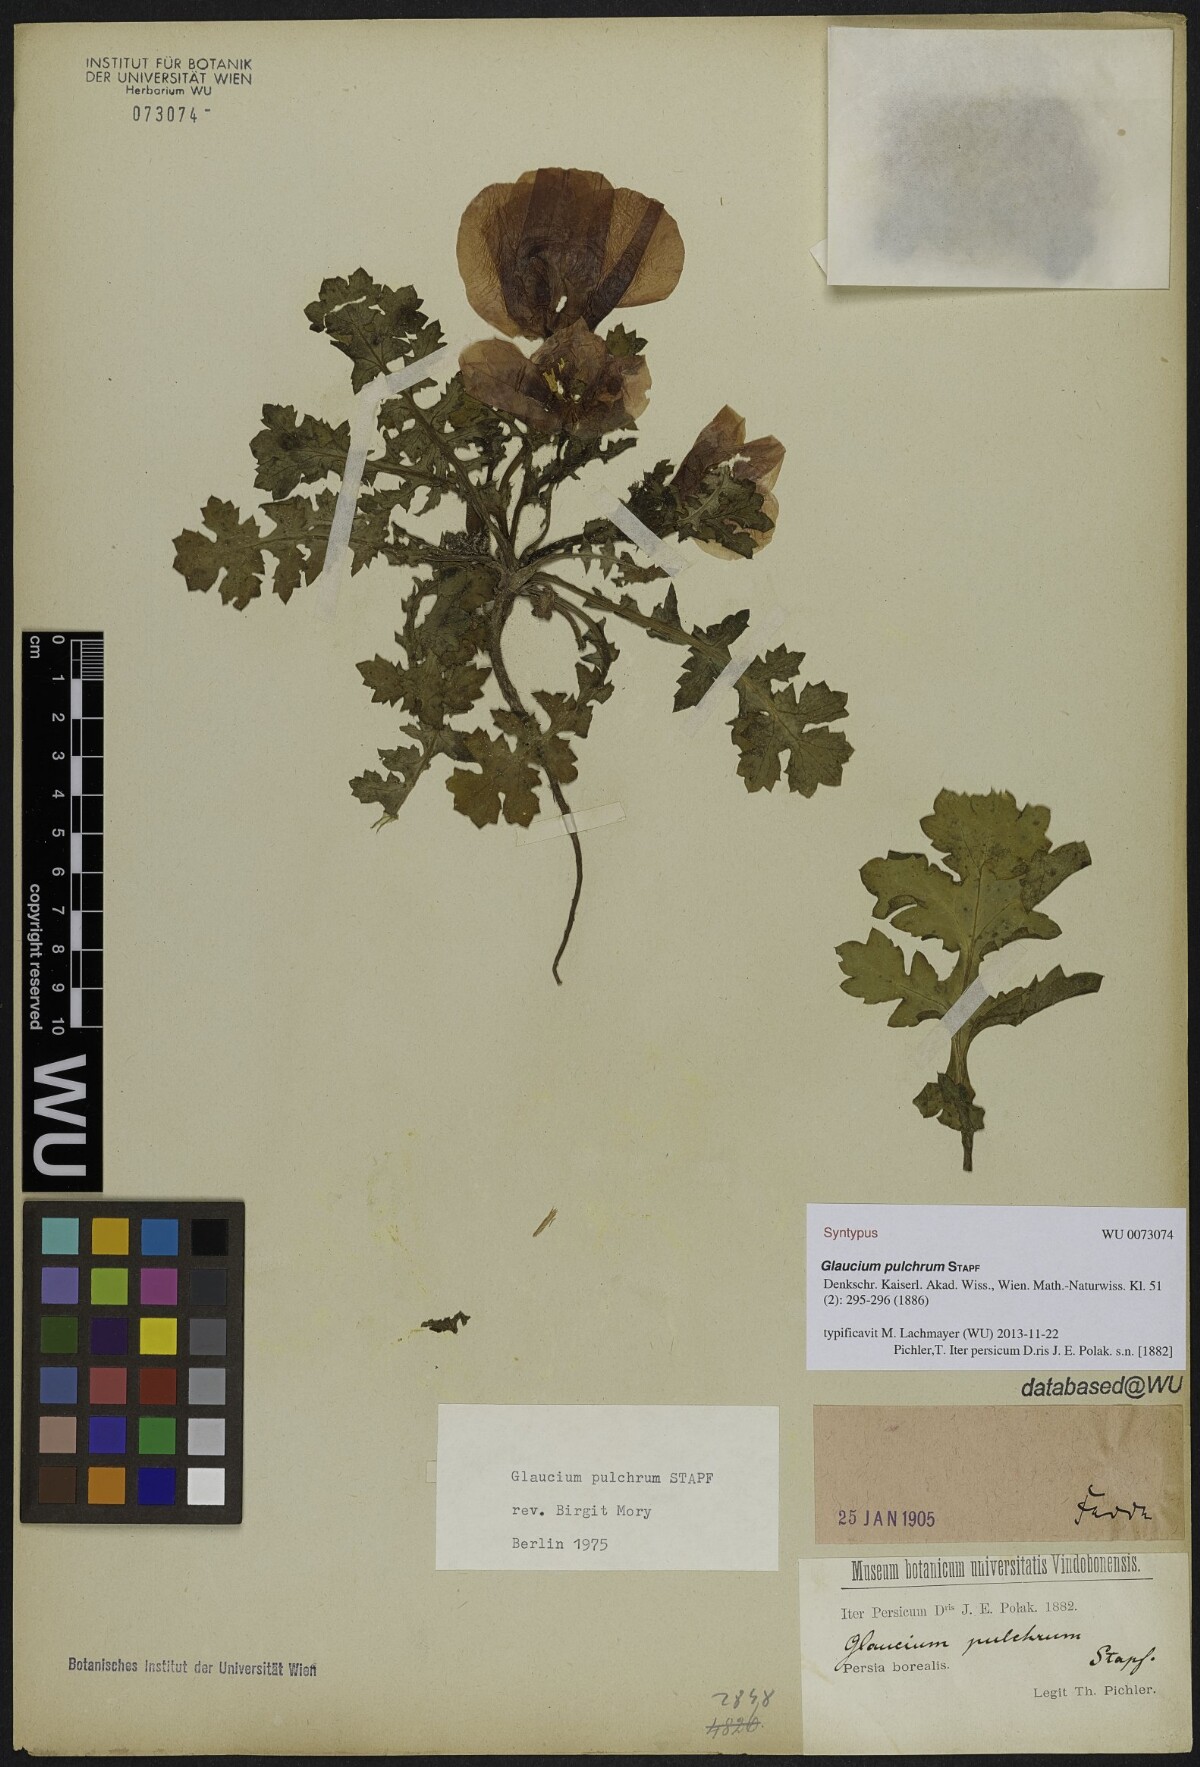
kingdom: Plantae
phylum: Tracheophyta
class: Magnoliopsida
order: Ranunculales
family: Papaveraceae
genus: Glaucium
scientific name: Glaucium oxylobum
